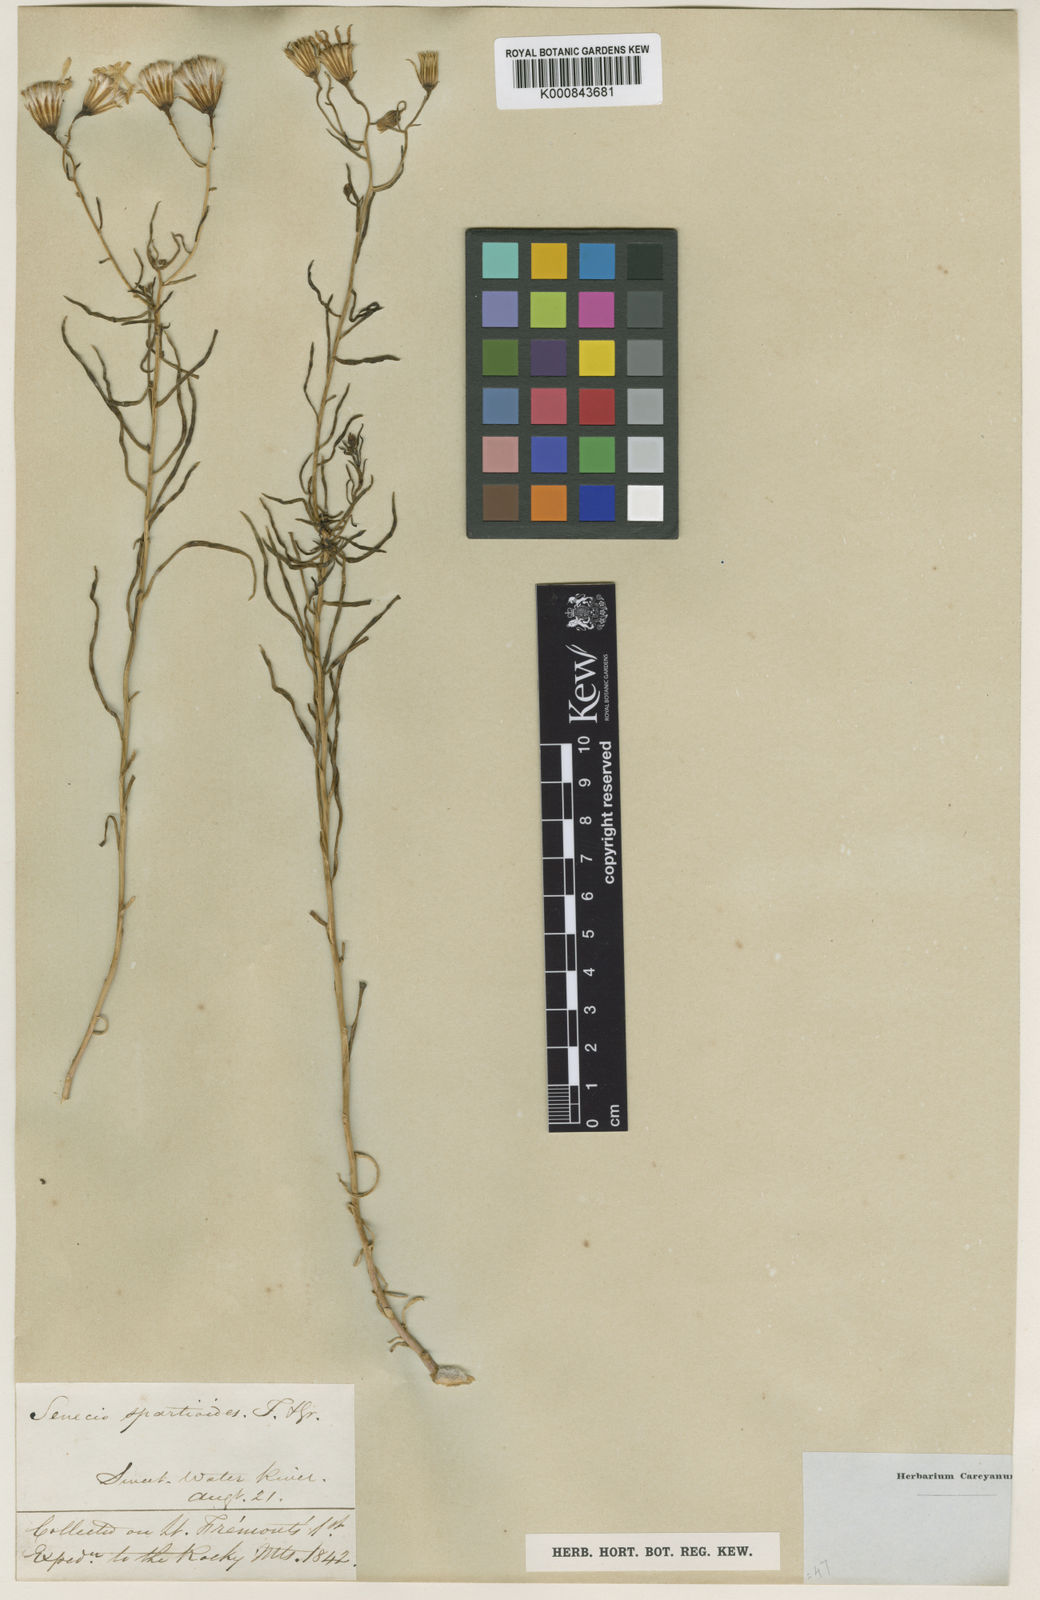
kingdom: Plantae
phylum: Tracheophyta
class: Magnoliopsida
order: Asterales
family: Asteraceae
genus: Senecio
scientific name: Senecio spartioides
